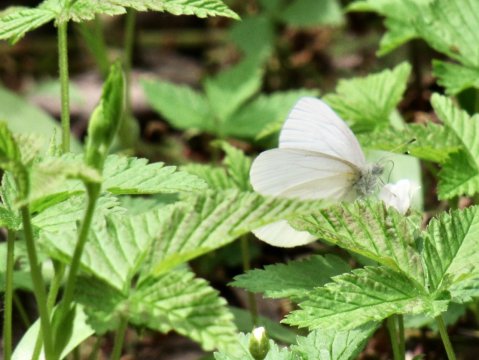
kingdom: Animalia
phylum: Arthropoda
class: Insecta
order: Lepidoptera
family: Pieridae
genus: Pieris
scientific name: Pieris virginiensis
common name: West Virginia White
